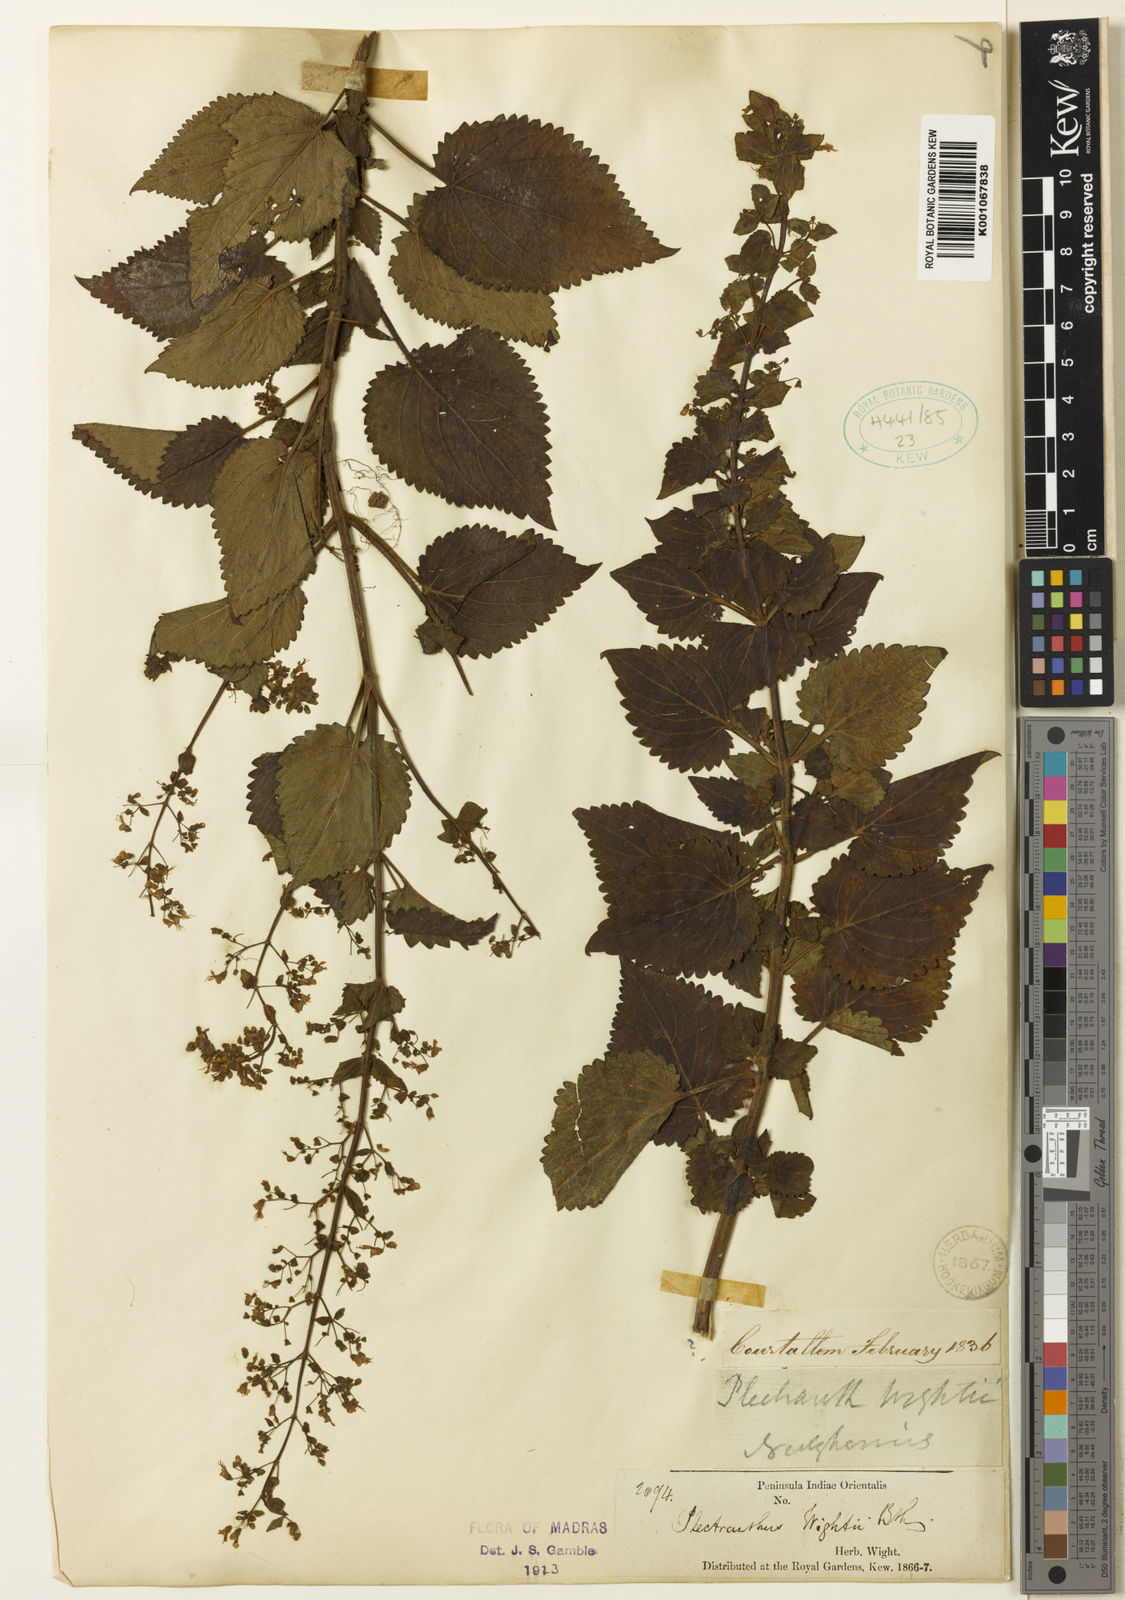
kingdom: Plantae
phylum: Tracheophyta
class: Magnoliopsida
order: Lamiales
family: Lamiaceae
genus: Isodon
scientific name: Isodon wightii
